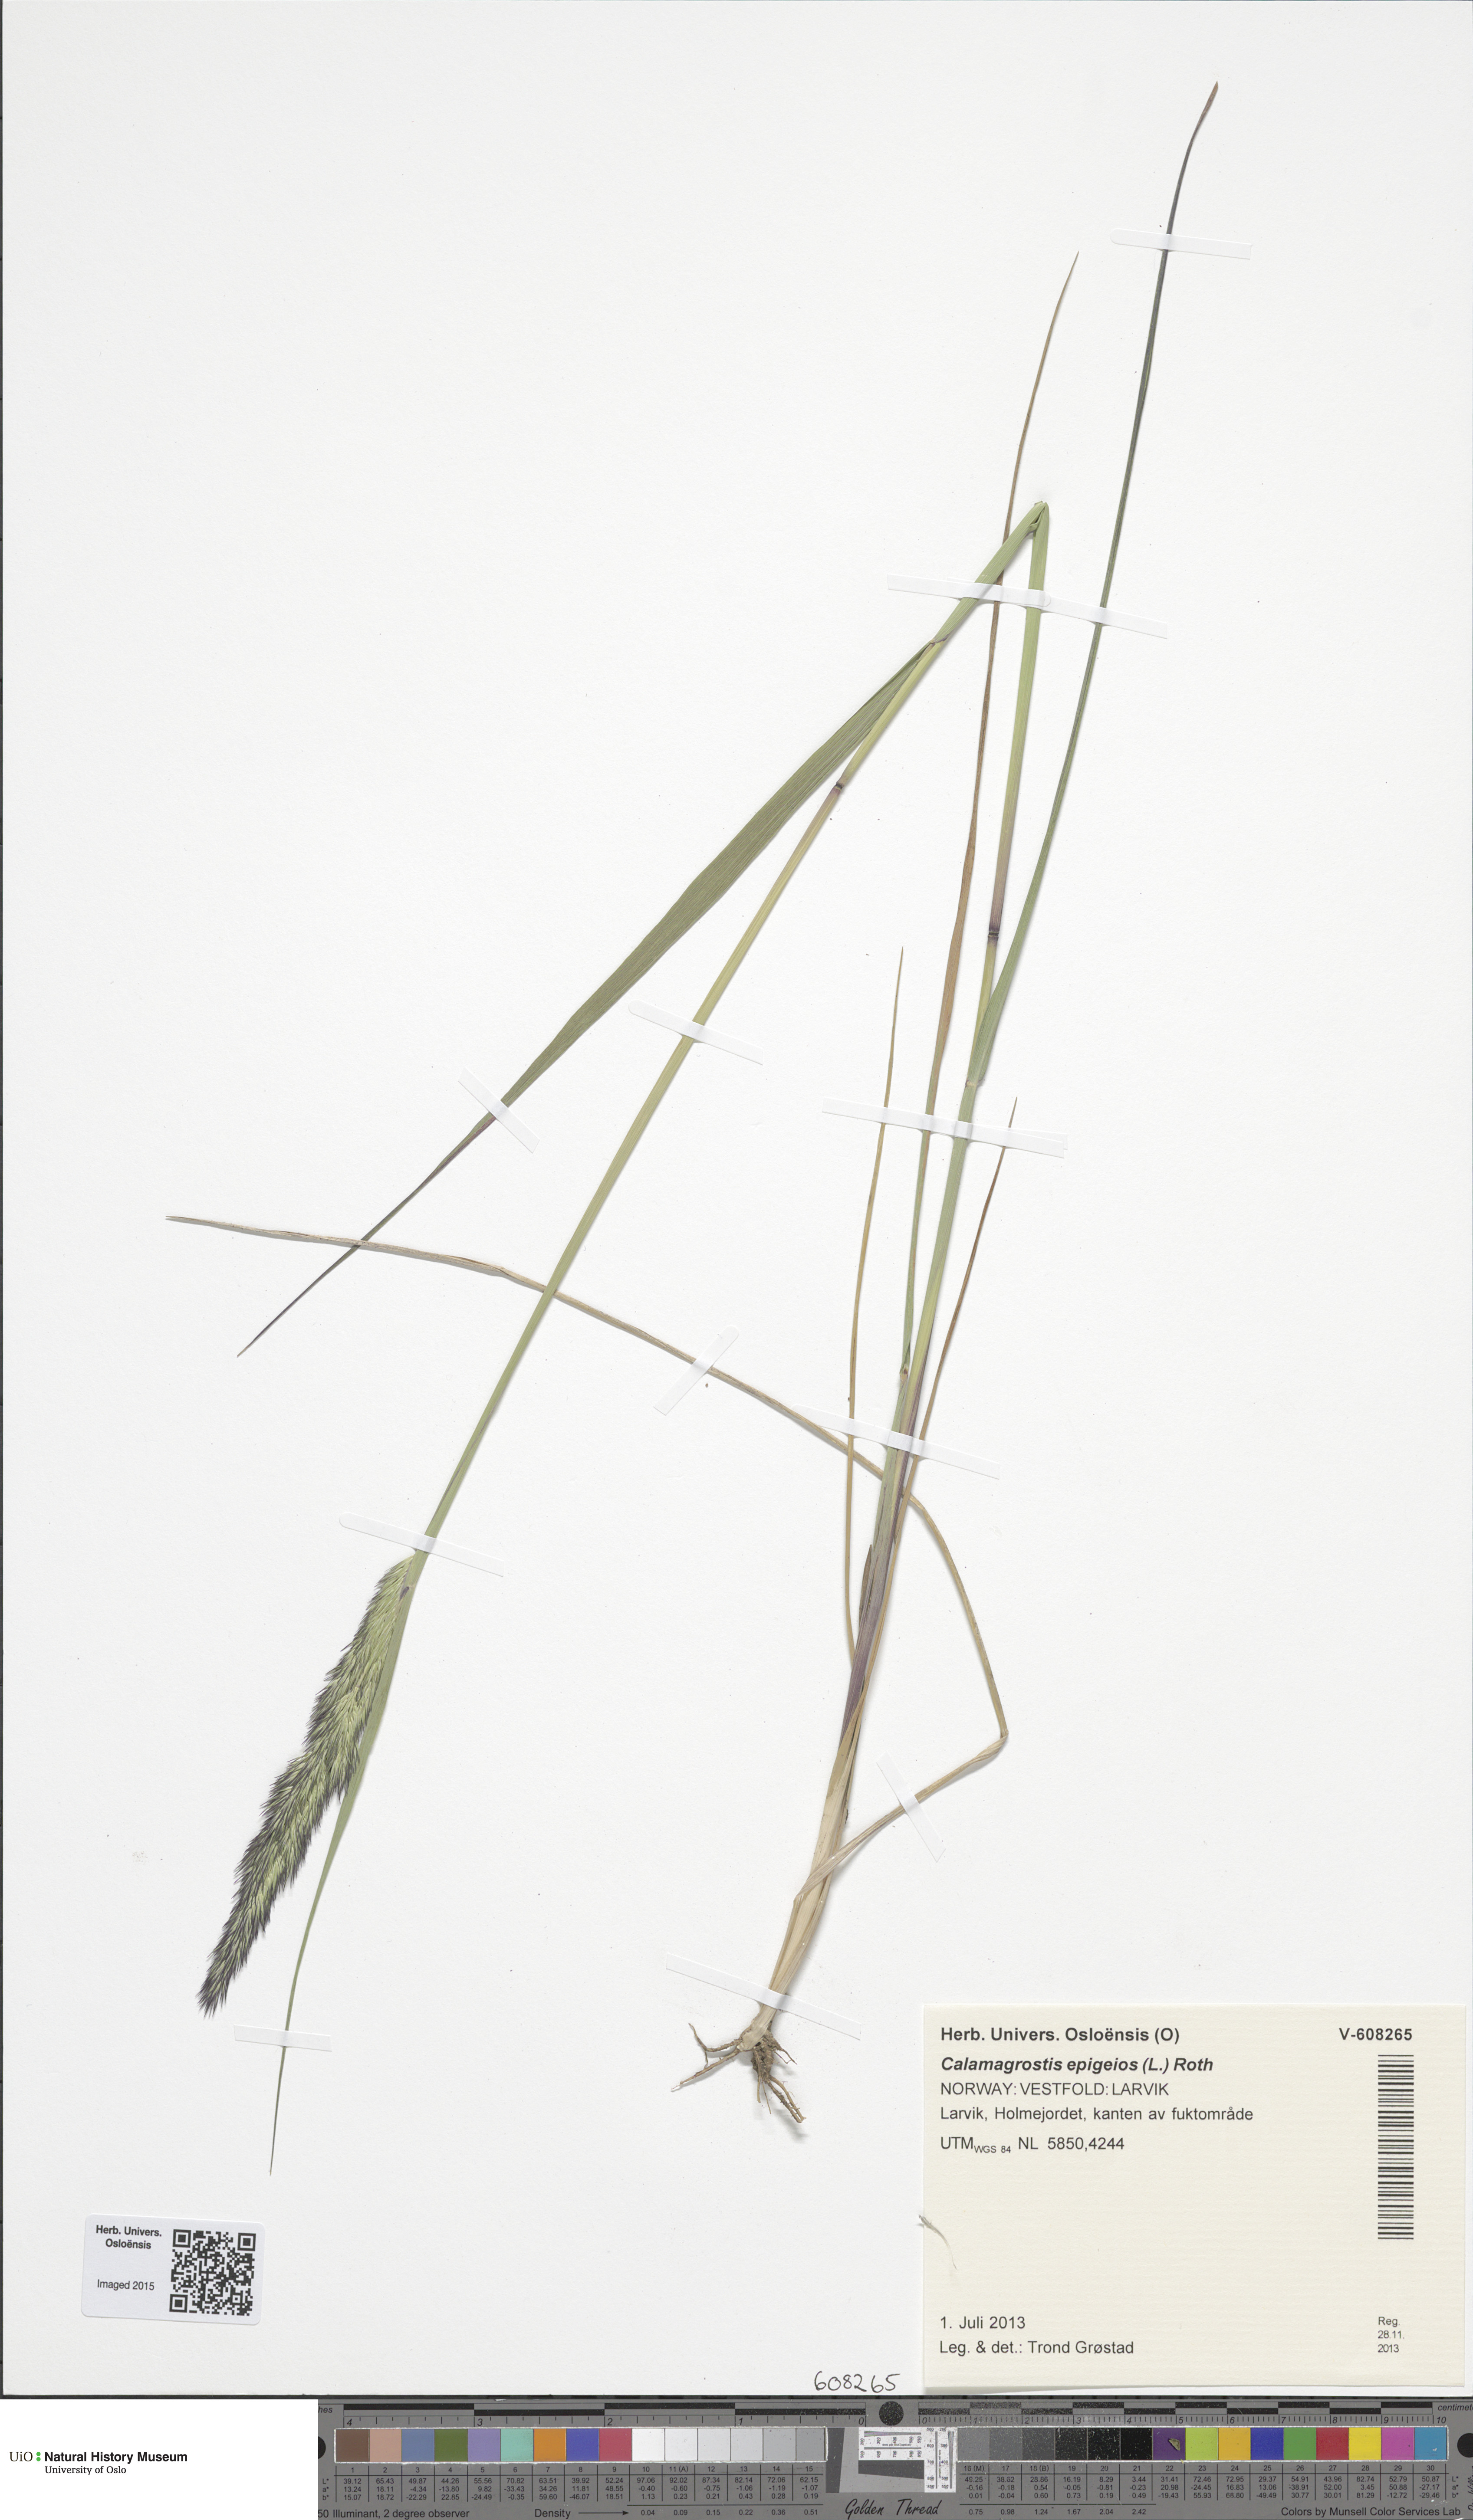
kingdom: Plantae
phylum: Tracheophyta
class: Liliopsida
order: Poales
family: Poaceae
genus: Calamagrostis
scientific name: Calamagrostis epigejos
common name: Wood small-reed
